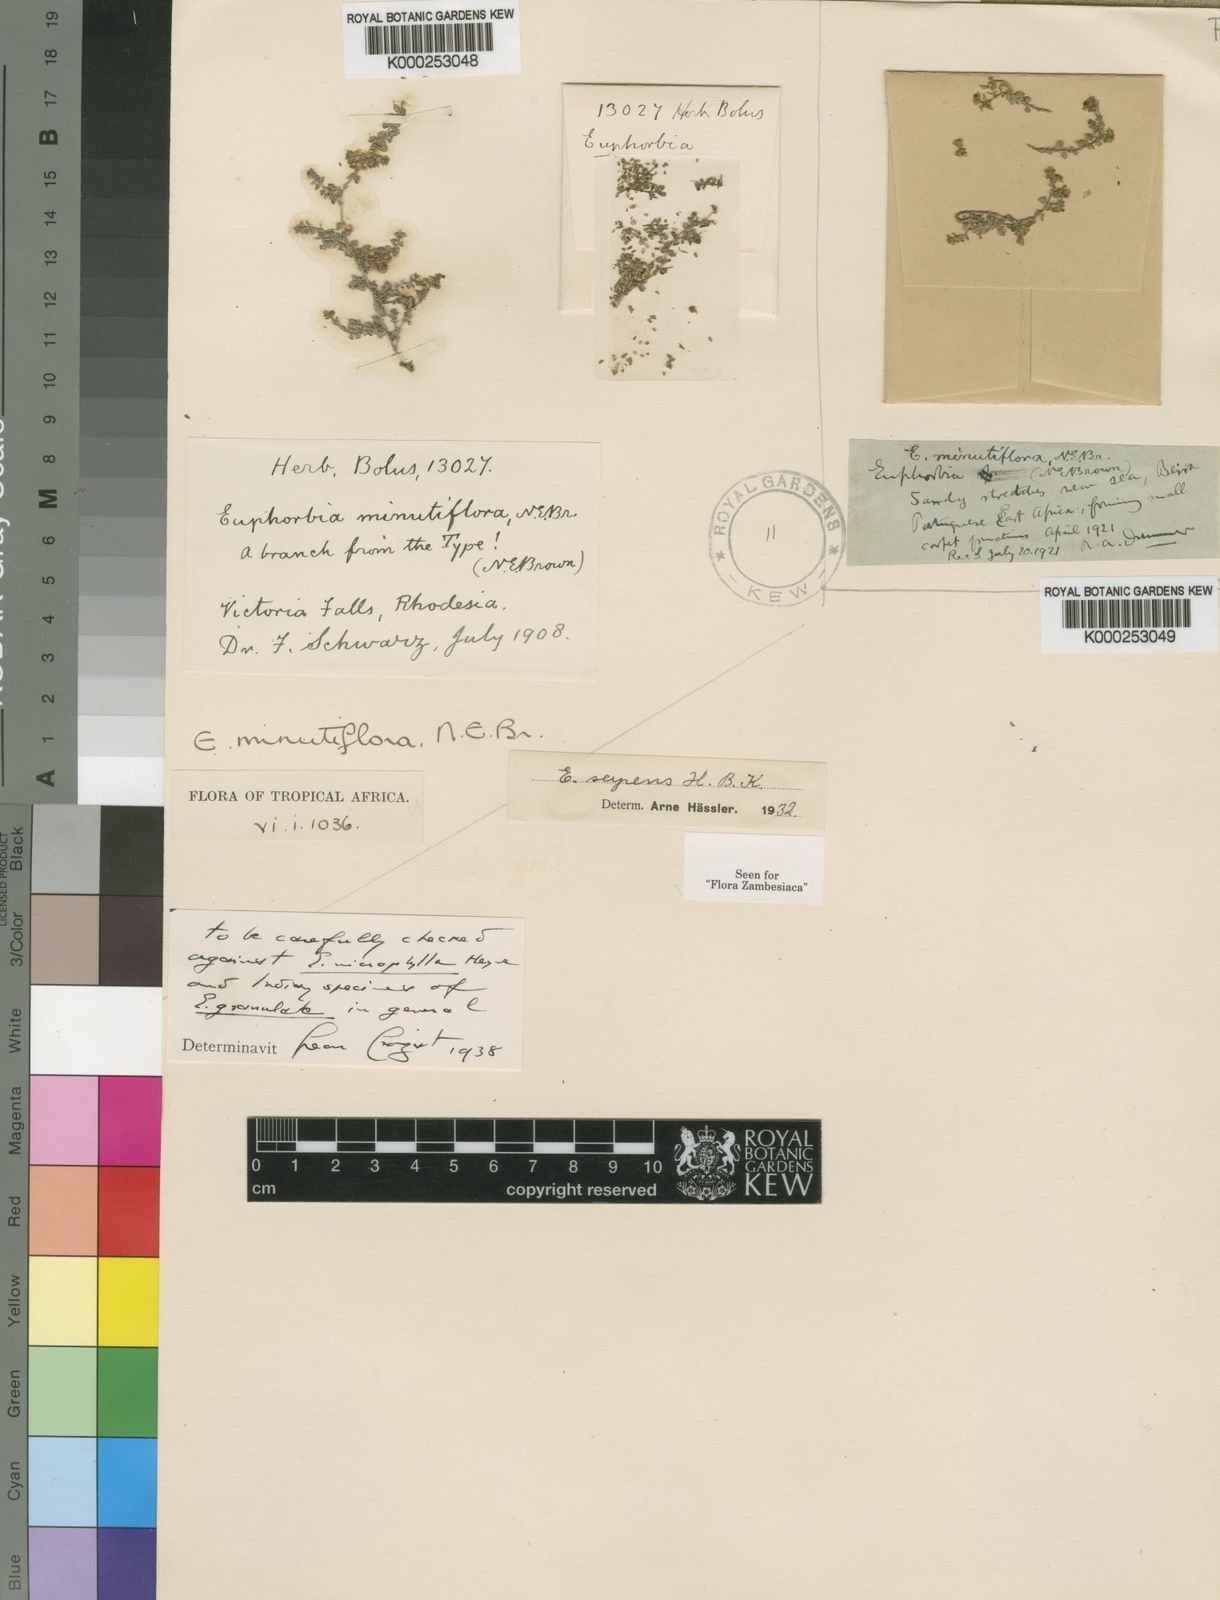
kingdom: Plantae
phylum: Tracheophyta
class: Magnoliopsida
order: Malpighiales
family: Euphorbiaceae
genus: Euphorbia
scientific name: Euphorbia serpens
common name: Matted sandmat
